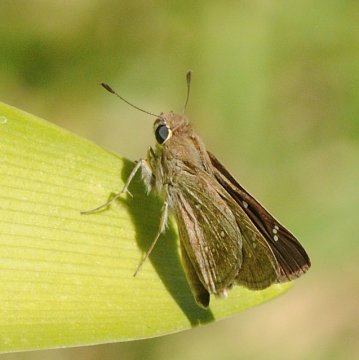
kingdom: Animalia
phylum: Arthropoda
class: Insecta
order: Lepidoptera
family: Hesperiidae
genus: Pelopidas
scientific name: Pelopidas mathias
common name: Small Branded Swift
